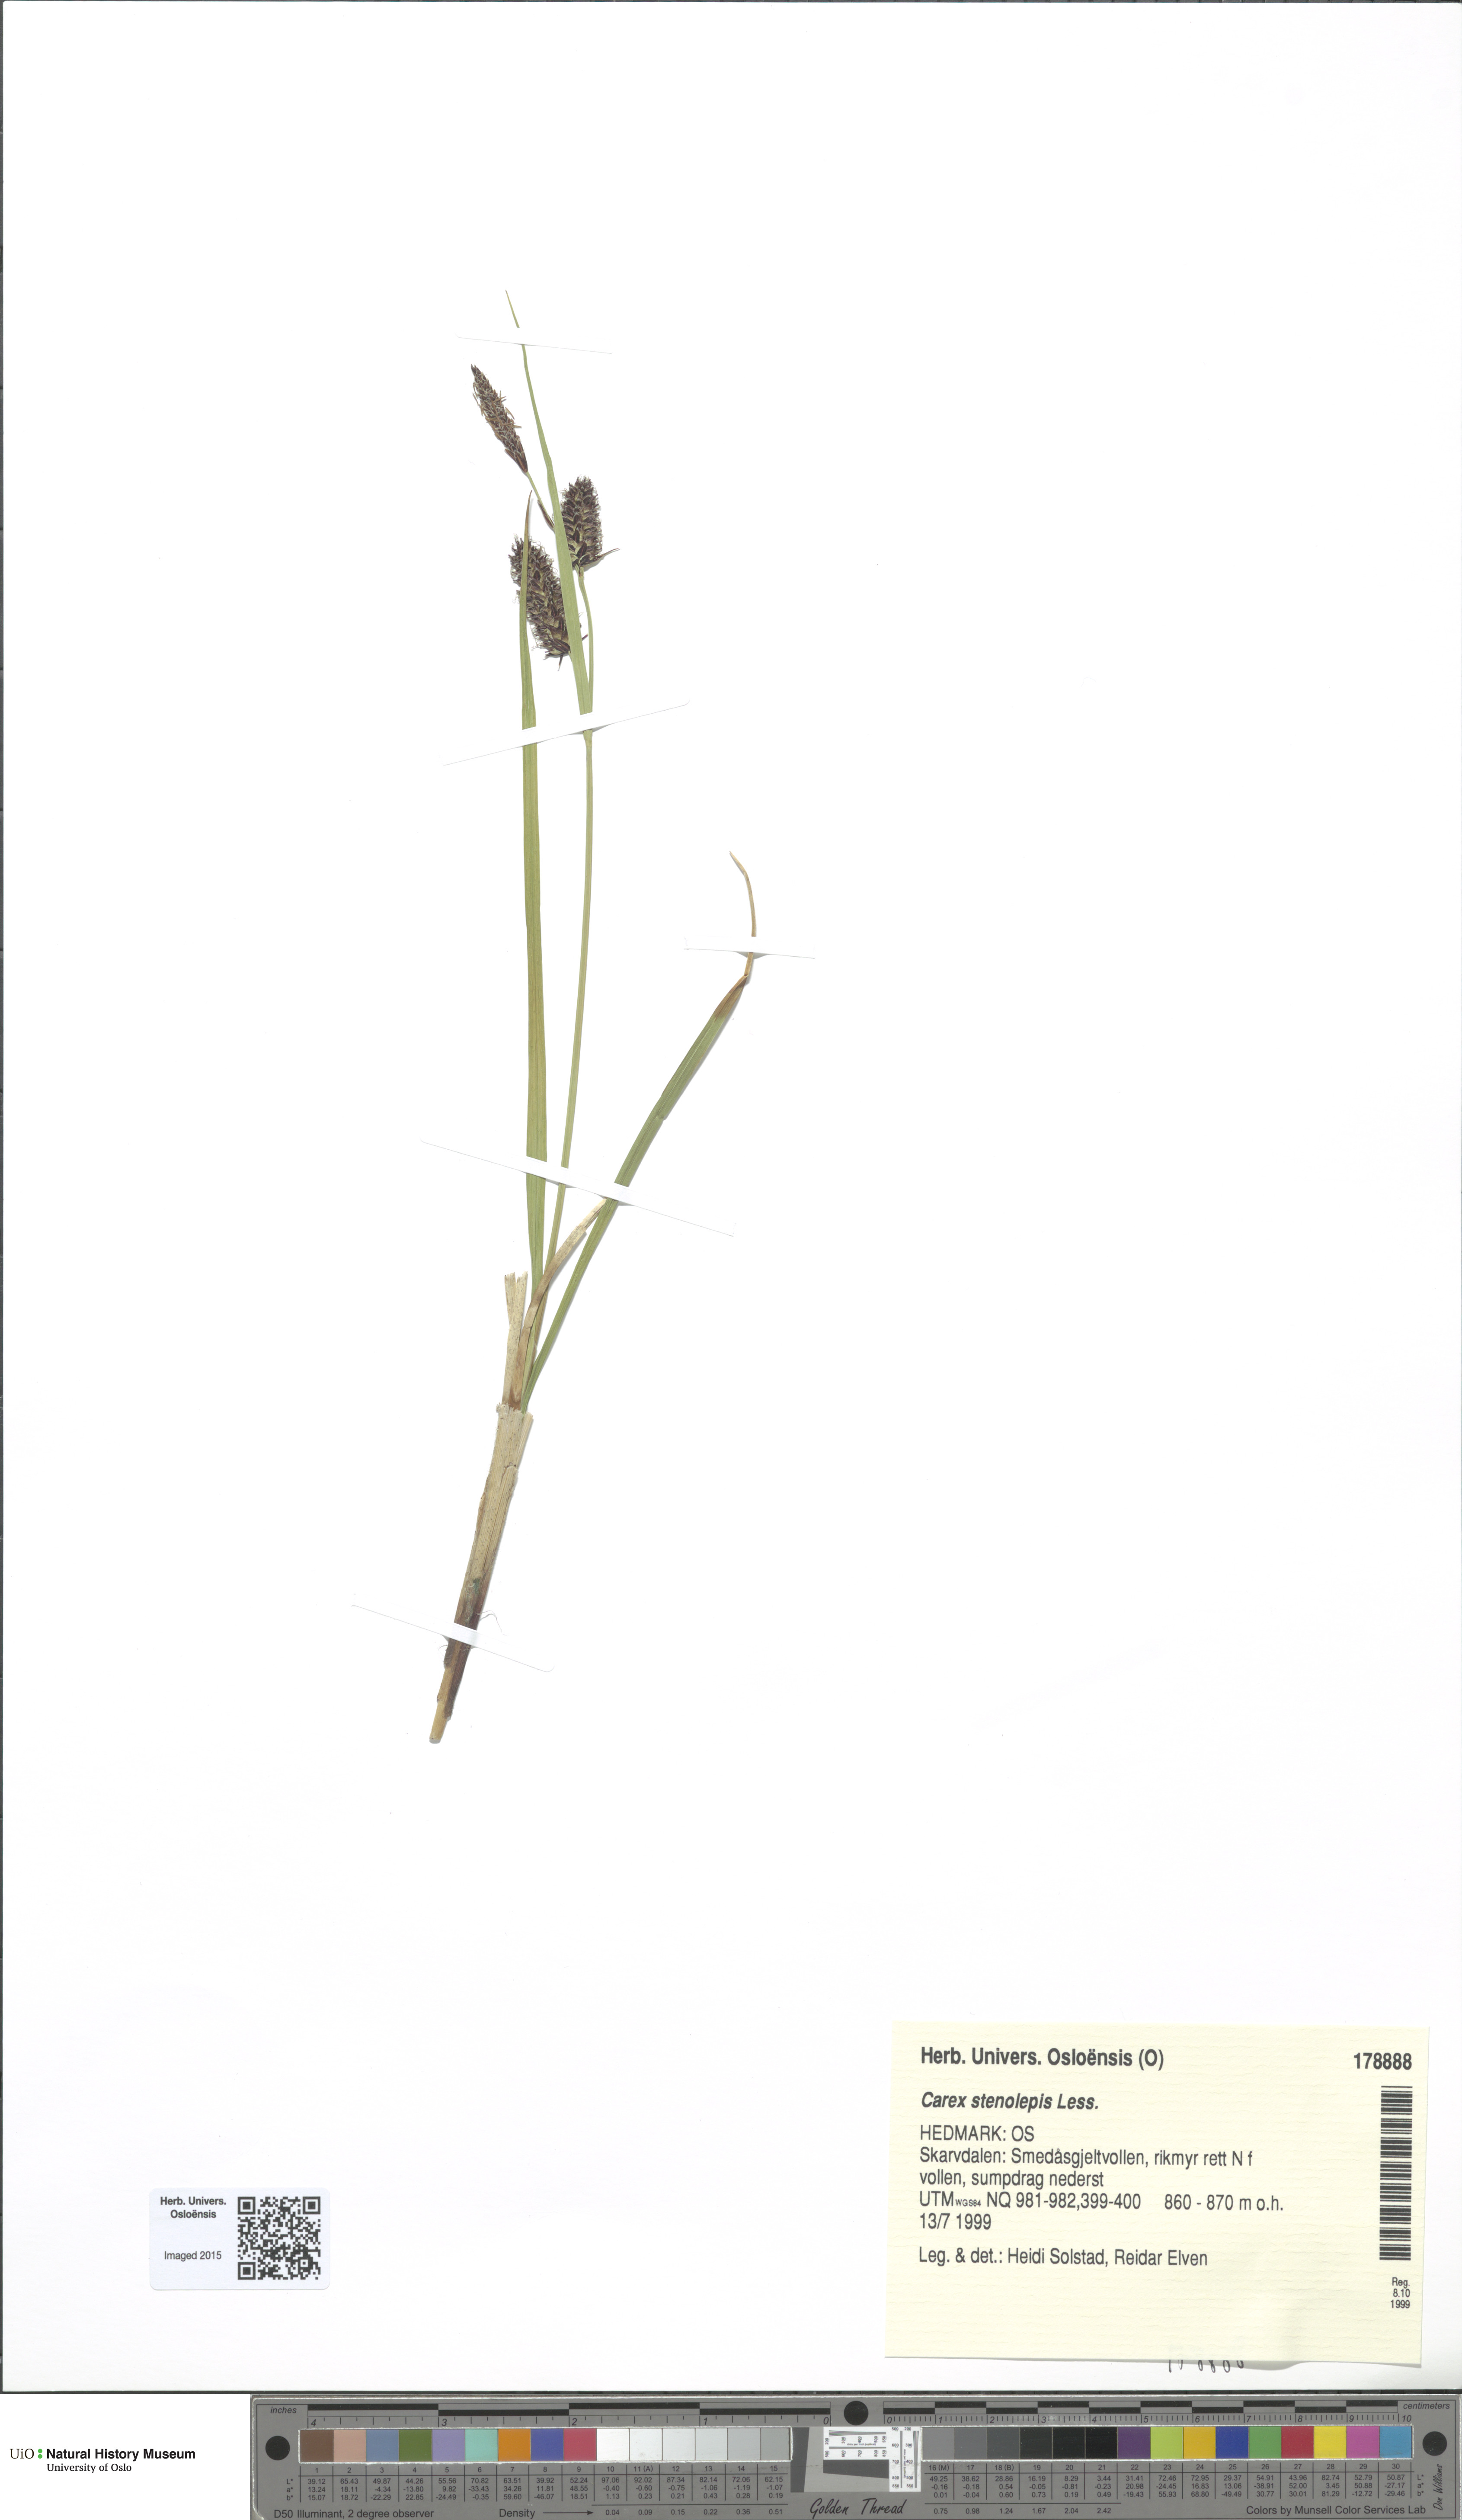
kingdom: Plantae
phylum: Tracheophyta
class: Liliopsida
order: Poales
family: Cyperaceae
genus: Carex
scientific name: Carex grahamii
